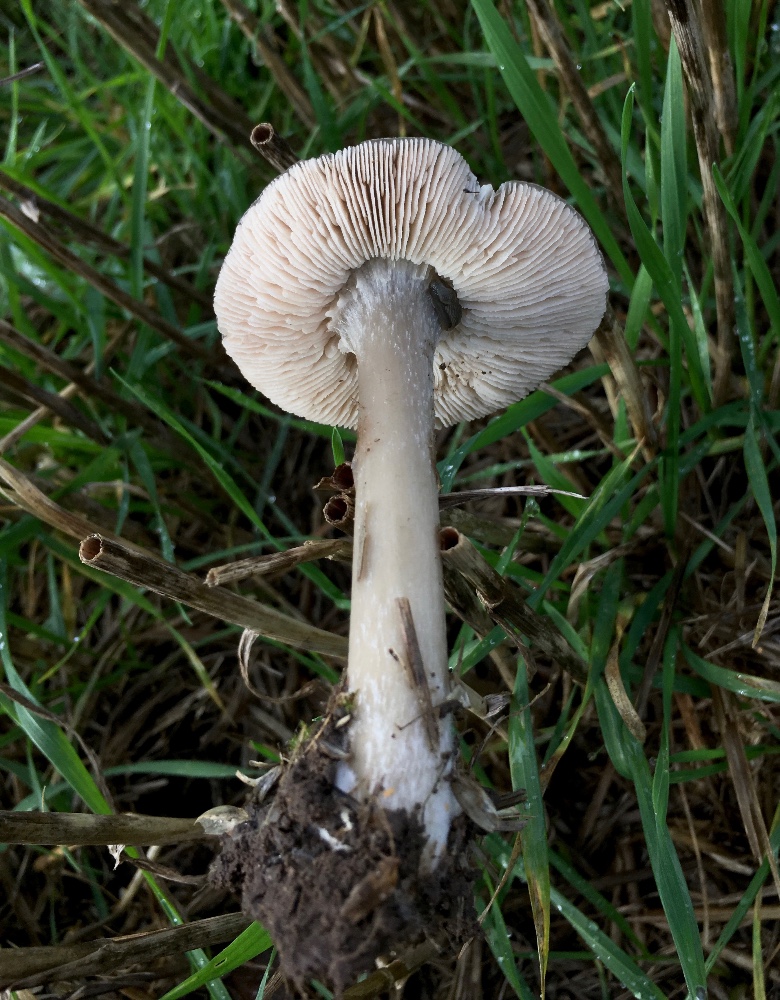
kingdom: Fungi
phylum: Basidiomycota
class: Agaricomycetes
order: Agaricales
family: Pluteaceae
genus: Volvopluteus
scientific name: Volvopluteus gloiocephalus
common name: høj posesvamp
